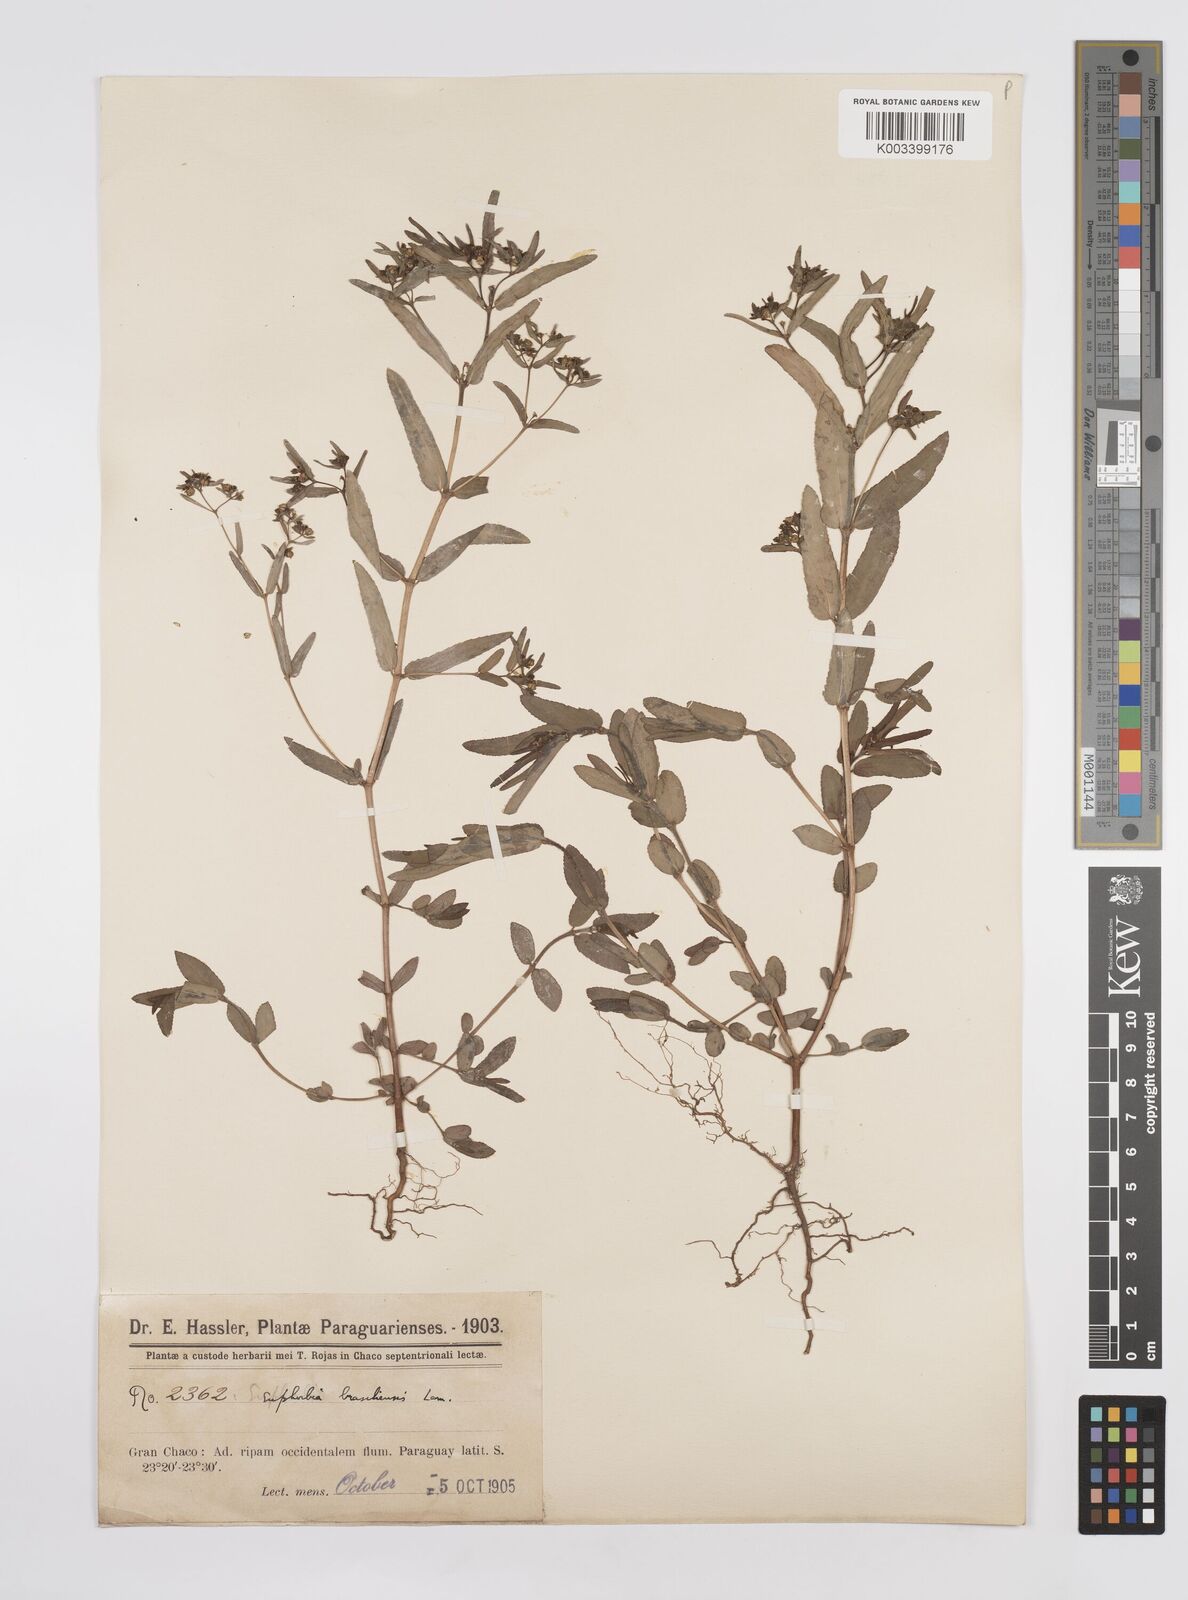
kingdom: Plantae
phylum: Tracheophyta
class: Magnoliopsida
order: Malpighiales
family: Euphorbiaceae
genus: Euphorbia
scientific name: Euphorbia hyssopifolia
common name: Hyssopleaf sandmat
